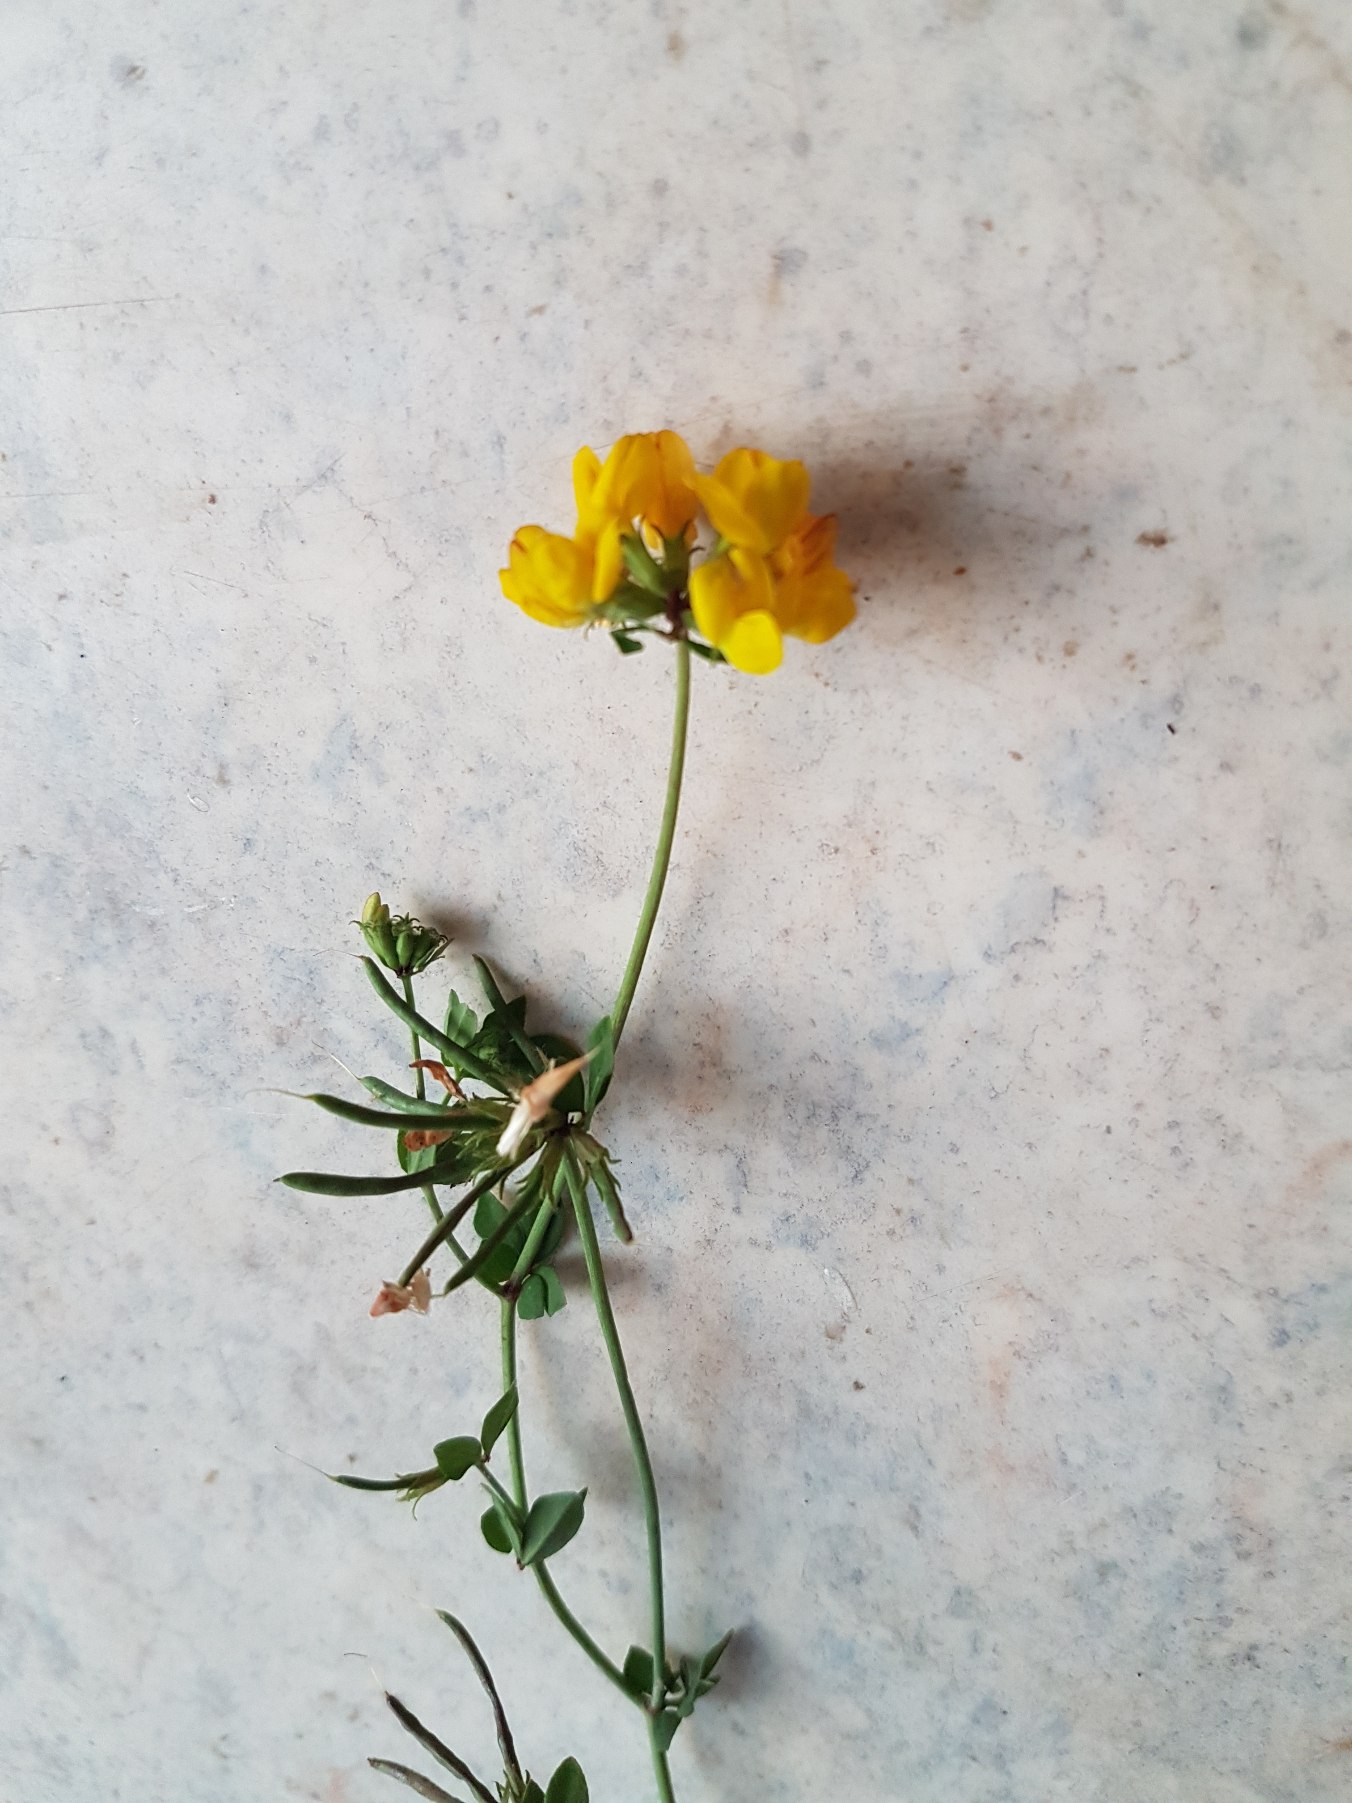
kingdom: Plantae
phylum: Tracheophyta
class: Magnoliopsida
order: Fabales
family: Fabaceae
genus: Lotus
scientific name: Lotus corniculatus
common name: Almindelig kællingetand
